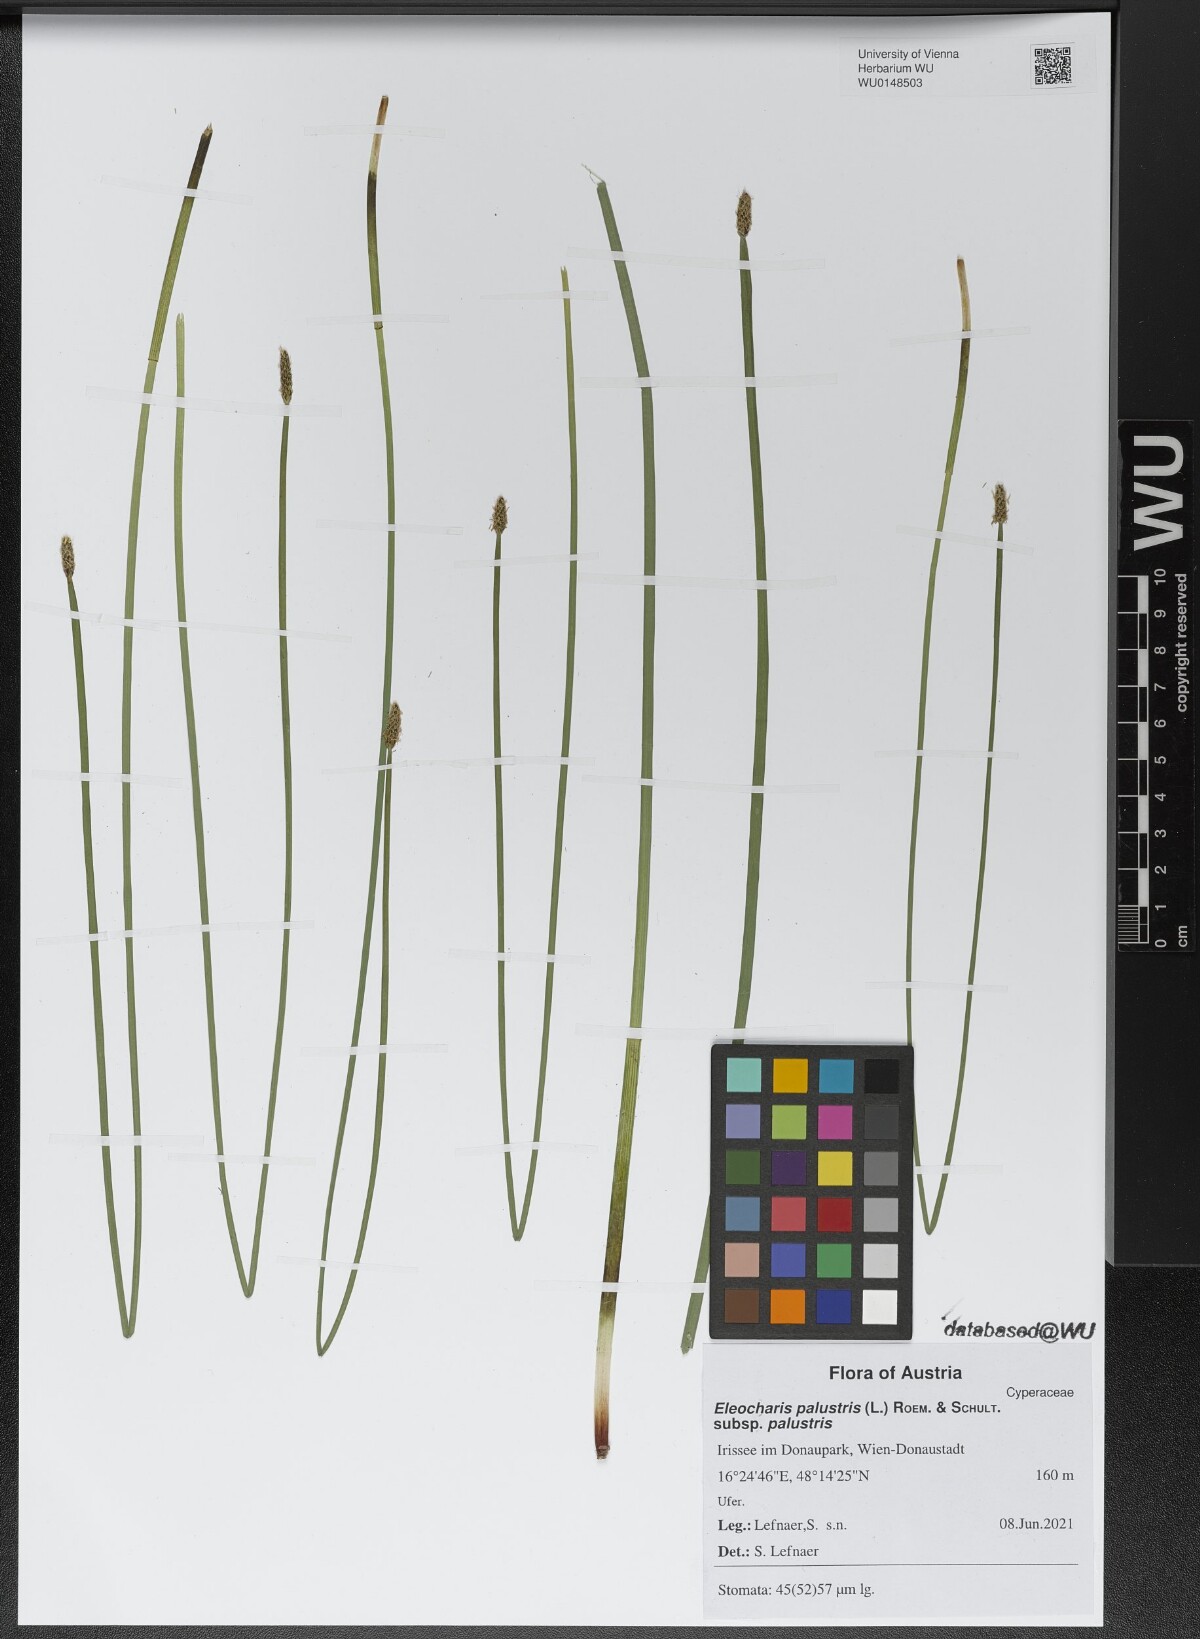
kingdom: Plantae
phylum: Tracheophyta
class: Liliopsida
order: Poales
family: Cyperaceae
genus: Eleocharis
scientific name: Eleocharis palustris
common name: Common spike-rush
